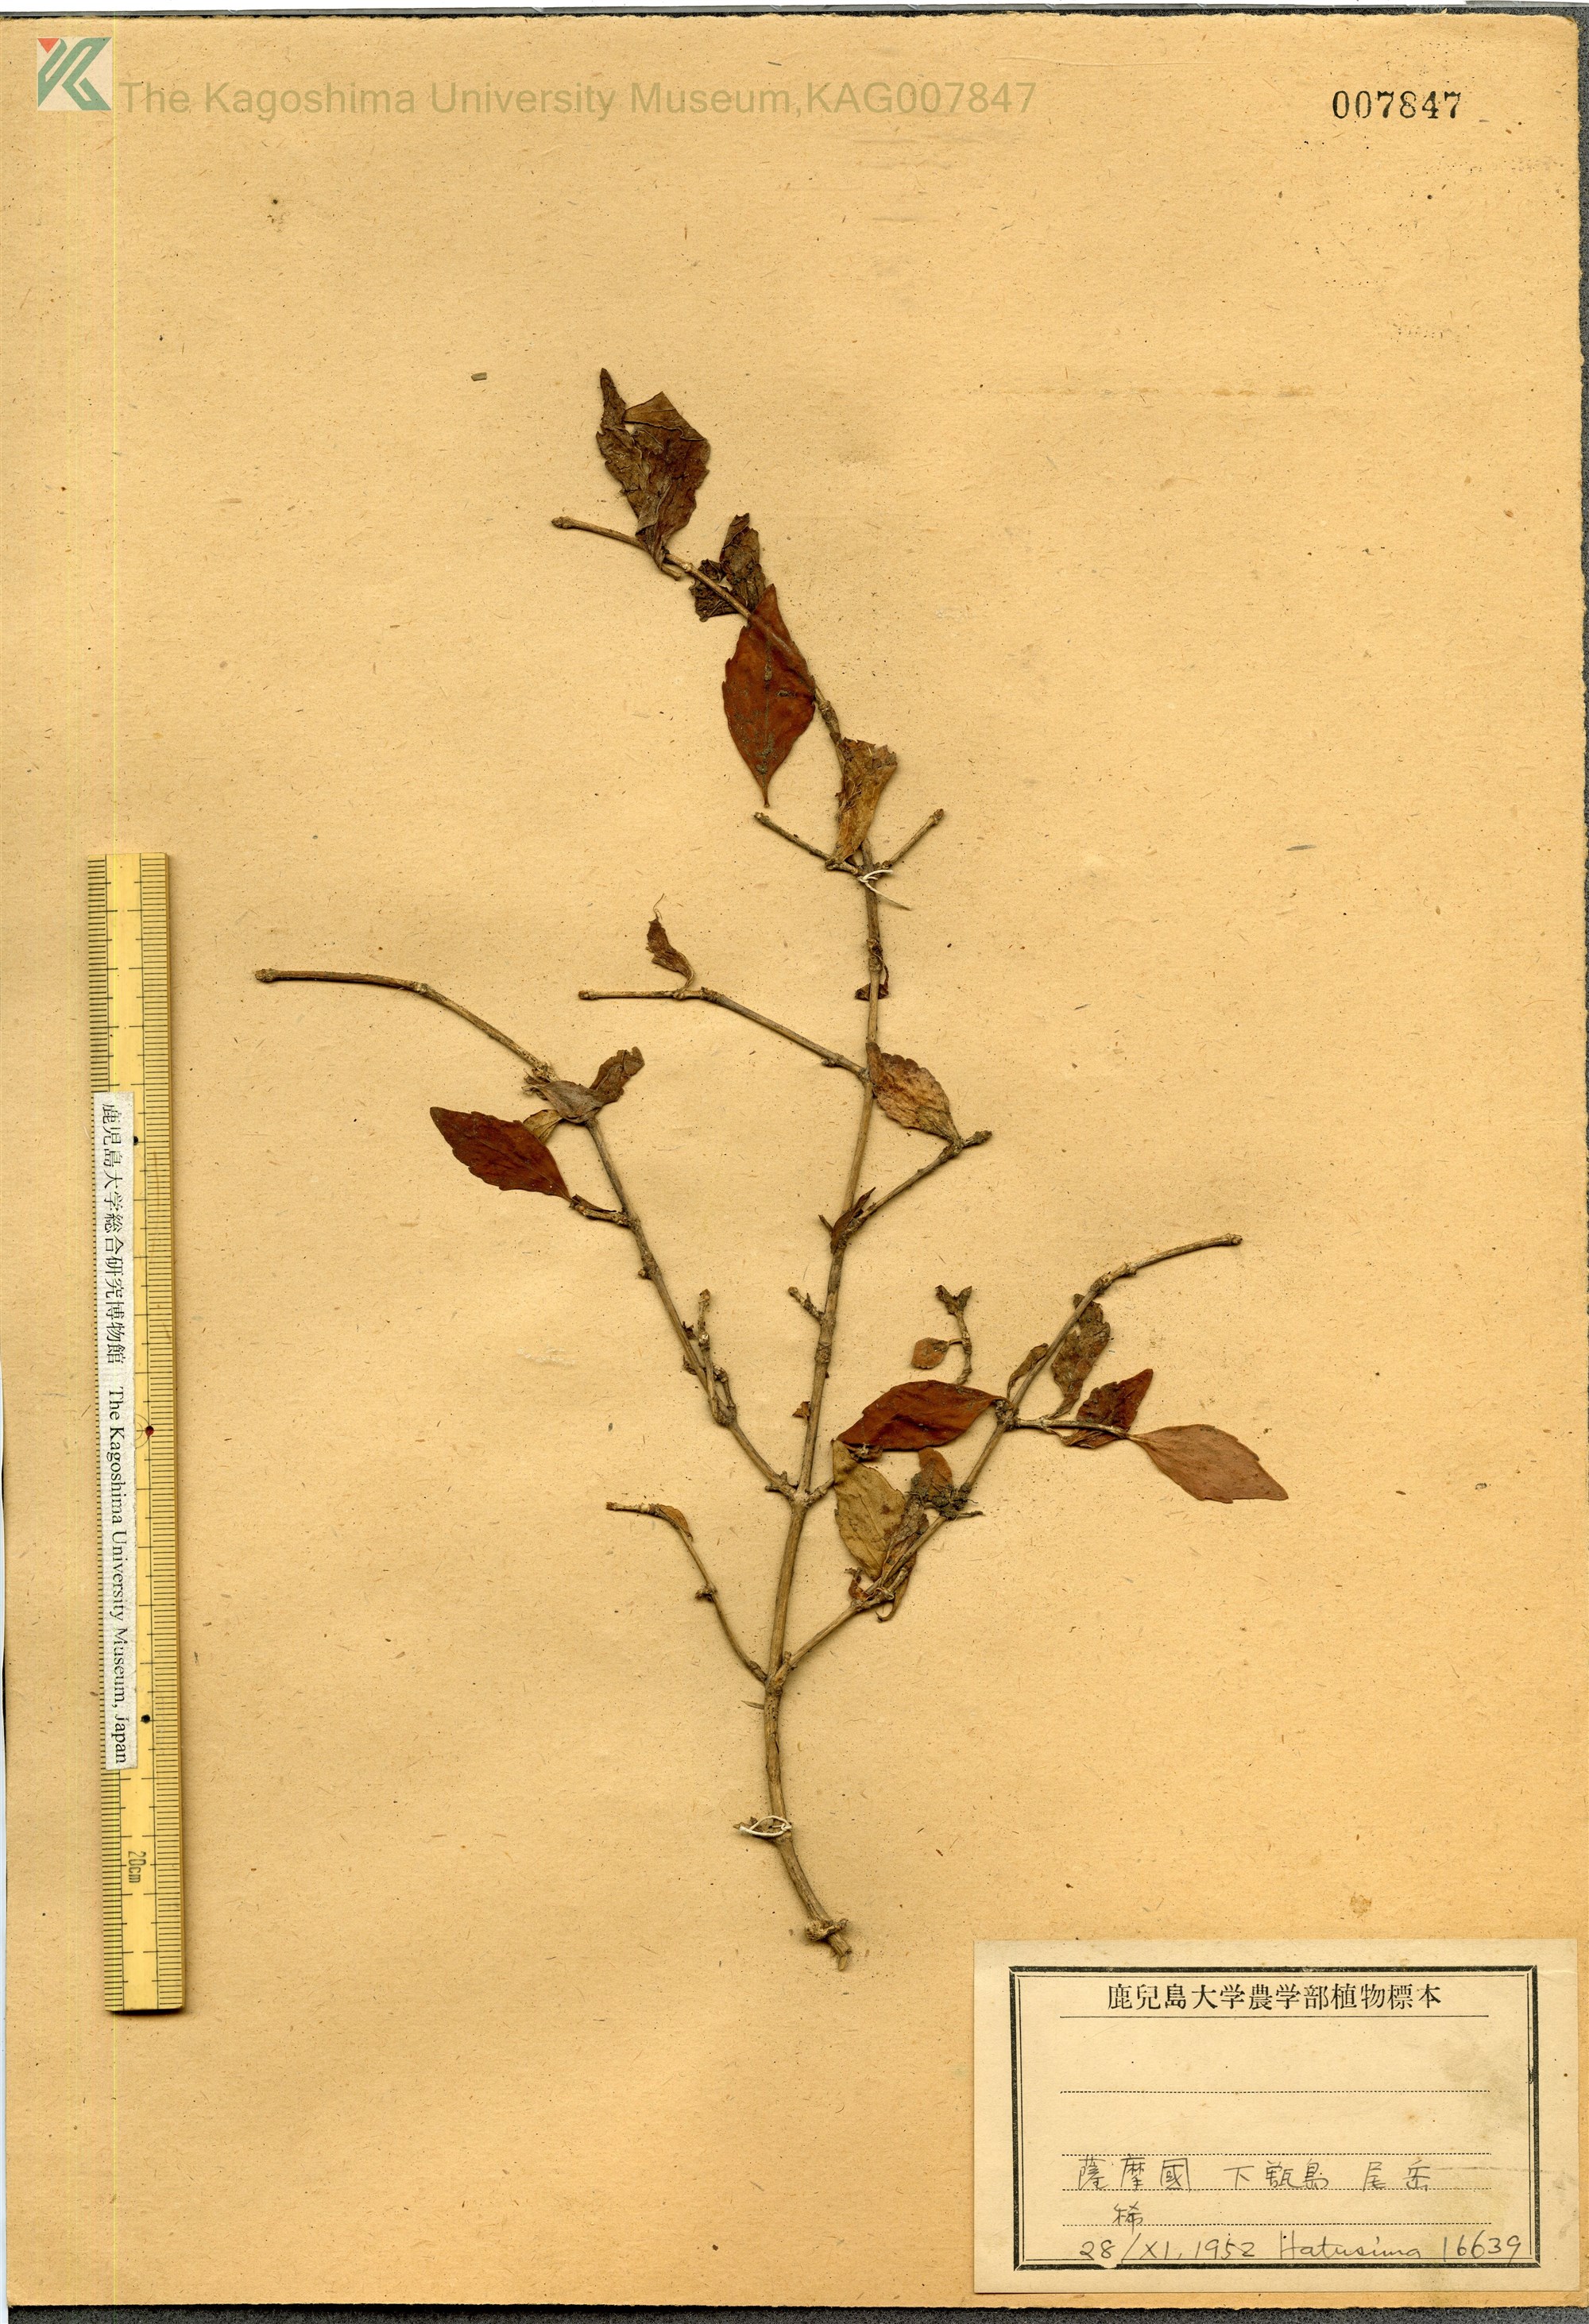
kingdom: Plantae
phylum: Tracheophyta
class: Magnoliopsida
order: Dipsacales
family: Caprifoliaceae
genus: Diabelia
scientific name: Diabelia serrata
